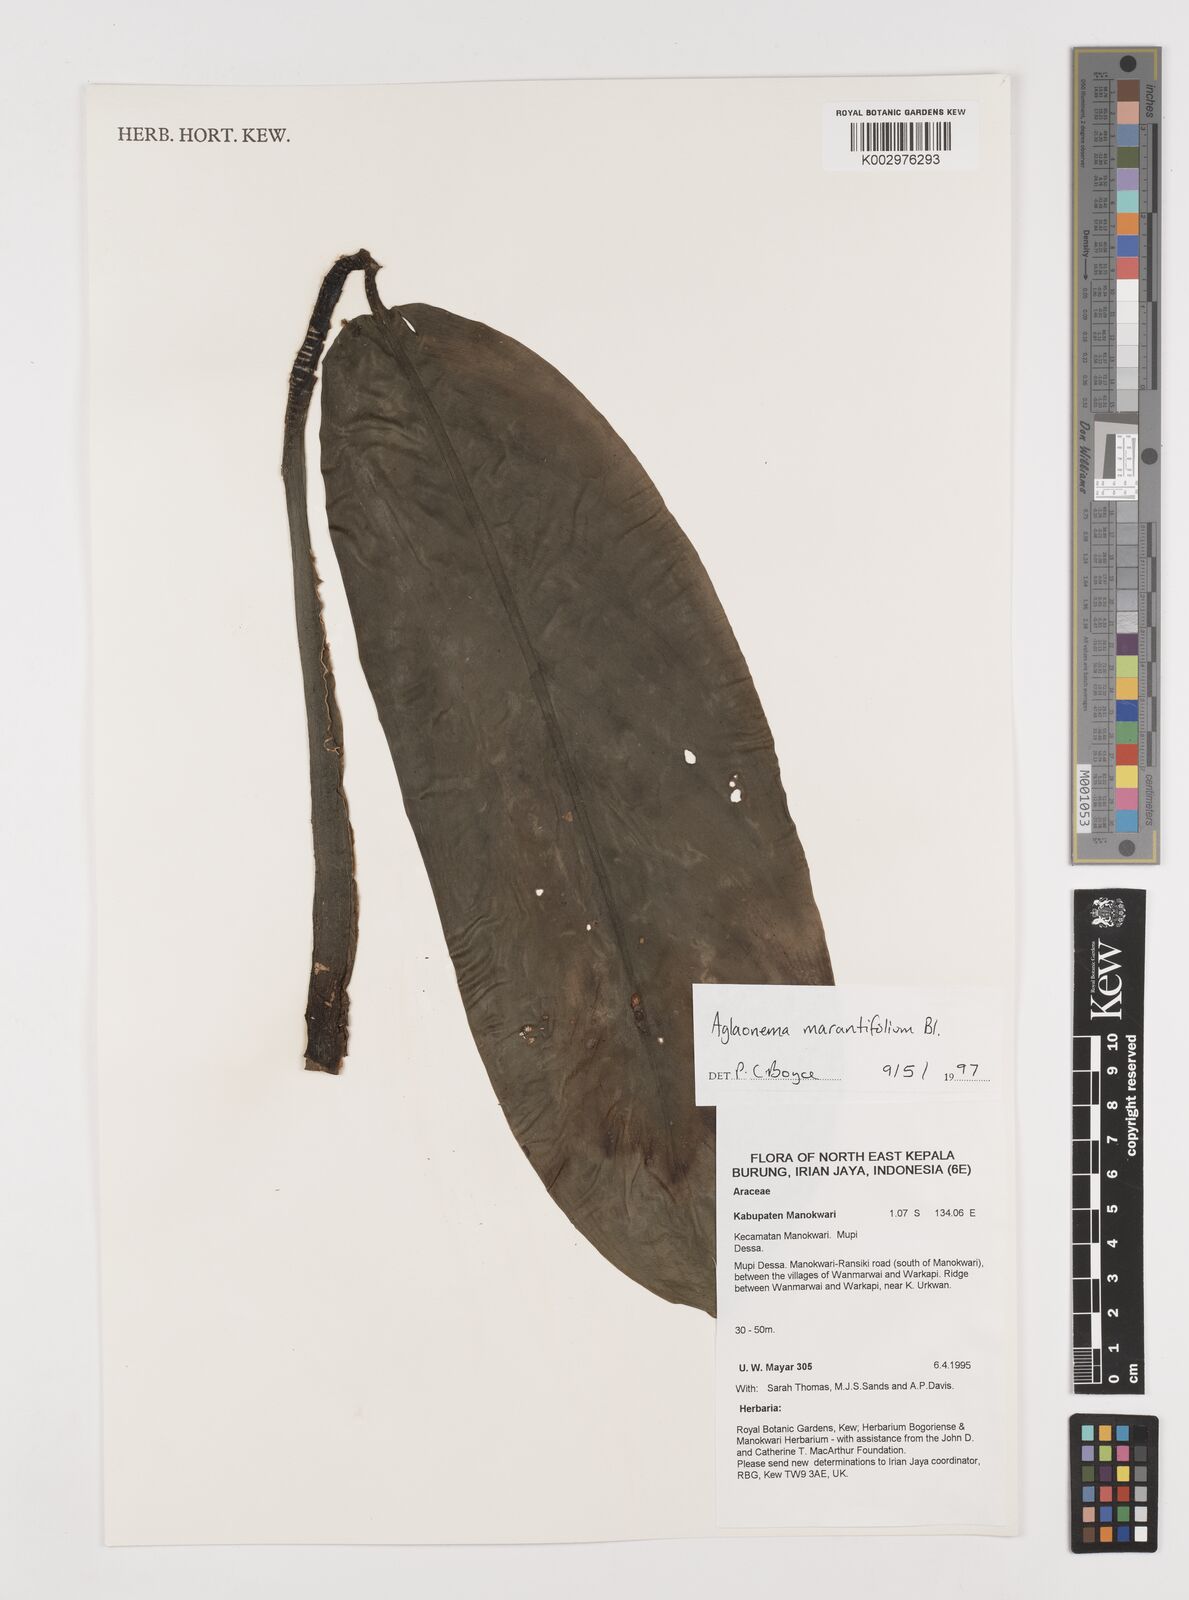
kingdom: Plantae
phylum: Tracheophyta
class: Liliopsida
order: Alismatales
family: Araceae
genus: Aglaonema
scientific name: Aglaonema marantifolium
